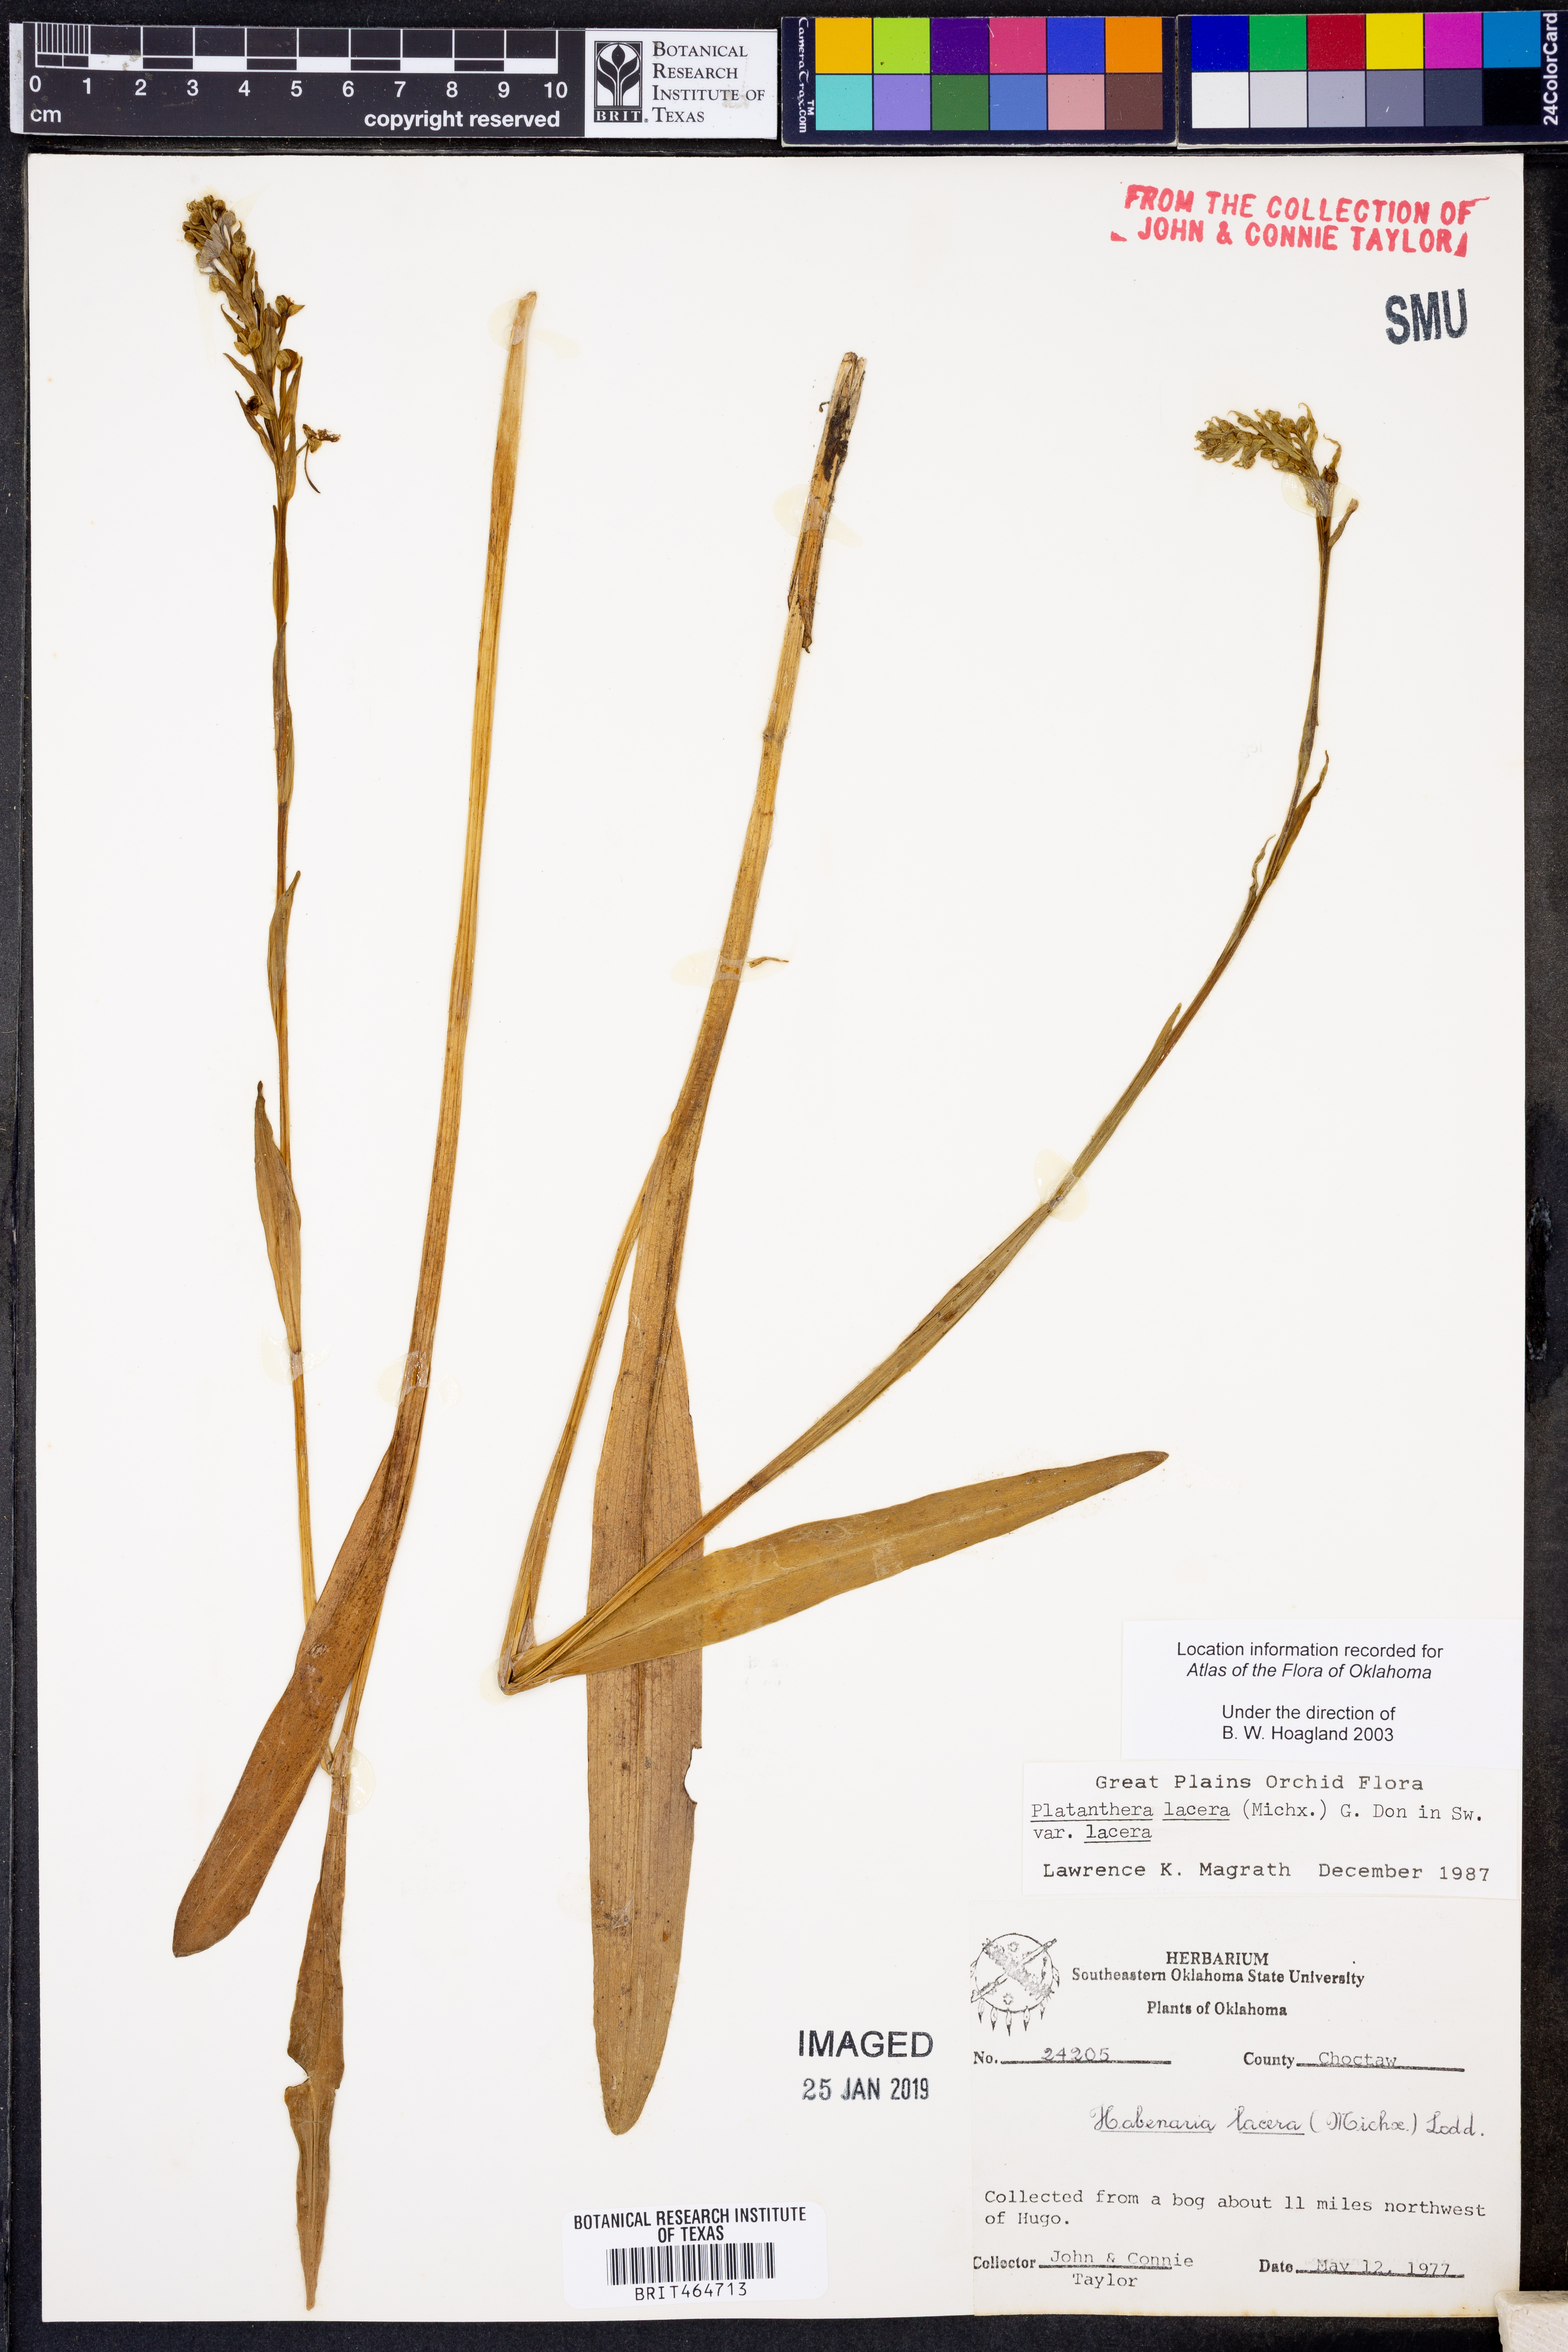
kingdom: Plantae
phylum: Tracheophyta
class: Liliopsida
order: Asparagales
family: Orchidaceae
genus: Platanthera
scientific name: Platanthera lacera
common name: Green fringed orchid
